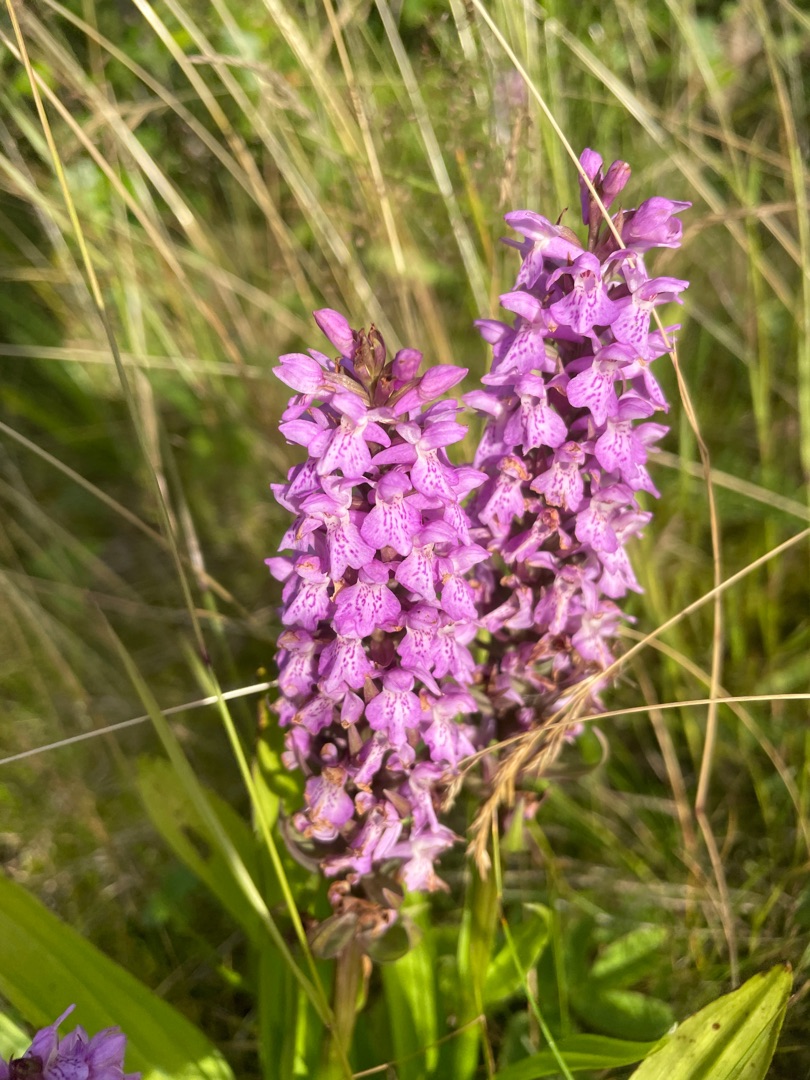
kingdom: Plantae
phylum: Tracheophyta
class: Liliopsida
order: Asparagales
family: Orchidaceae
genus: Dactylorhiza
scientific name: Dactylorhiza majalis
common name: Priklæbet gøgeurt
